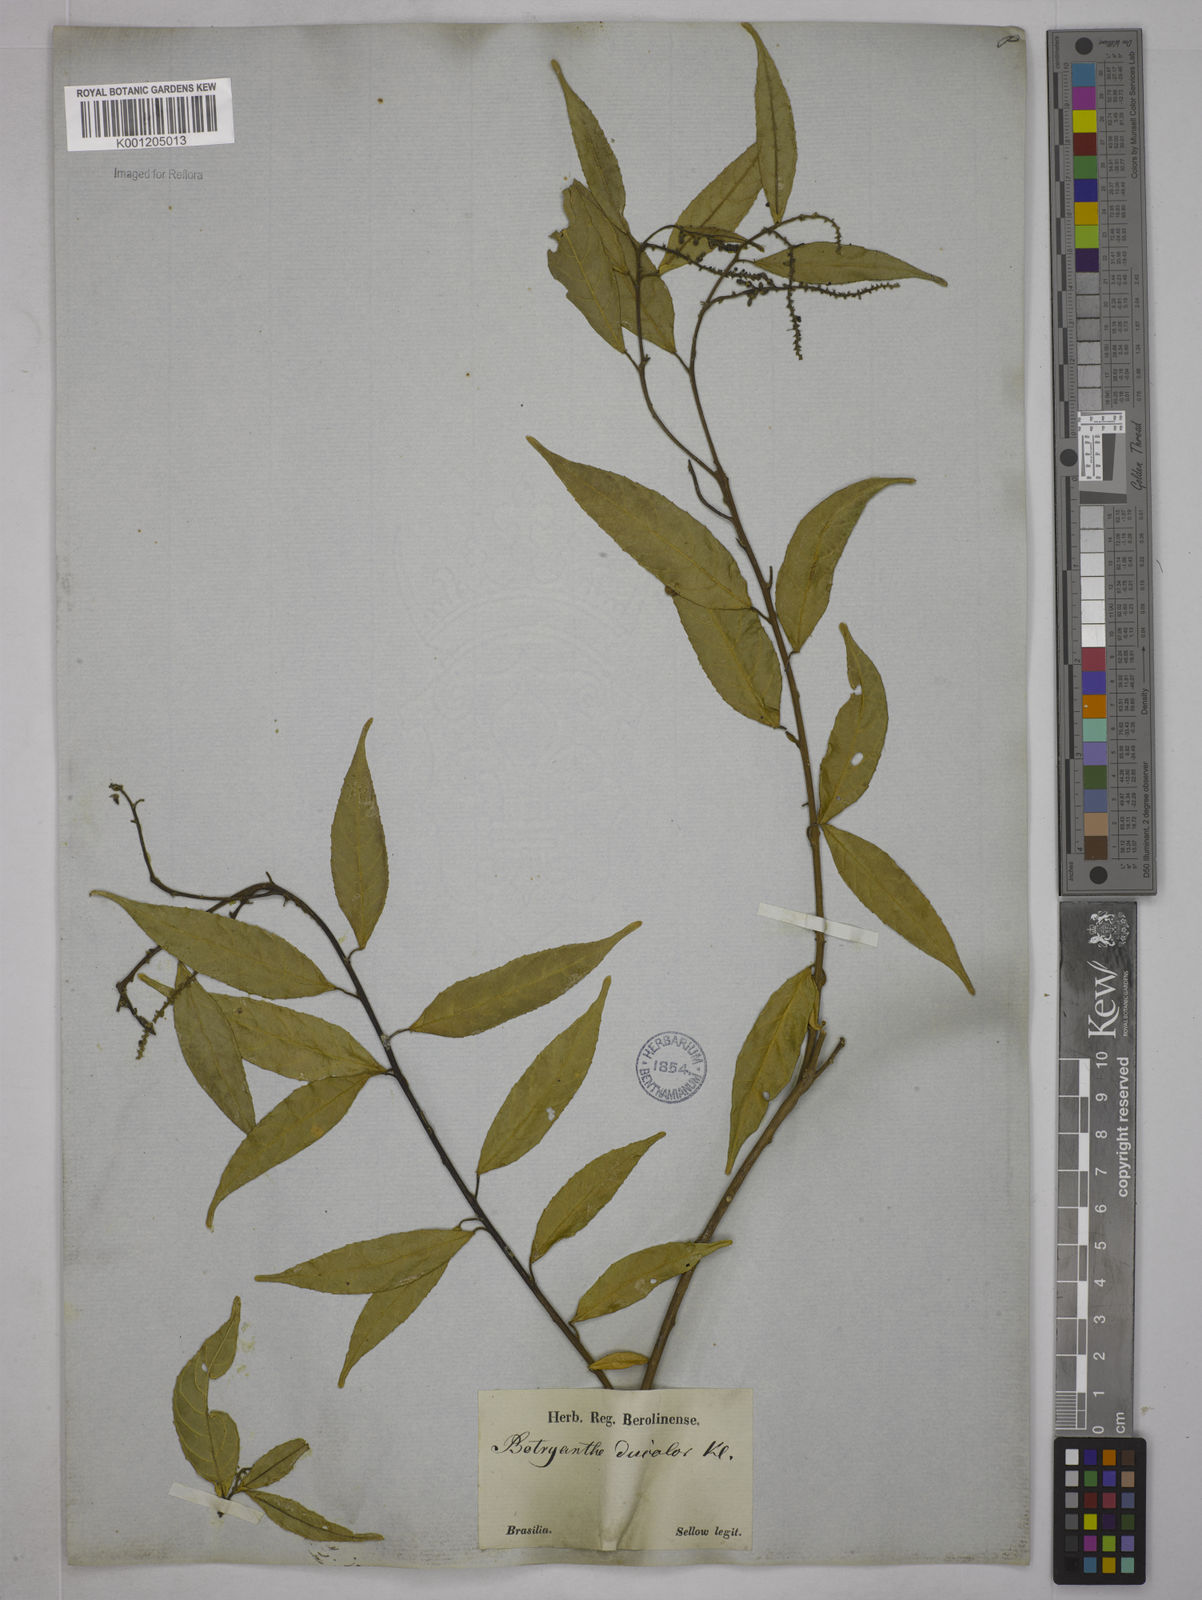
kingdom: Plantae
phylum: Tracheophyta
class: Magnoliopsida
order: Malpighiales
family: Euphorbiaceae
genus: Plukenetia
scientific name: Plukenetia serrata
